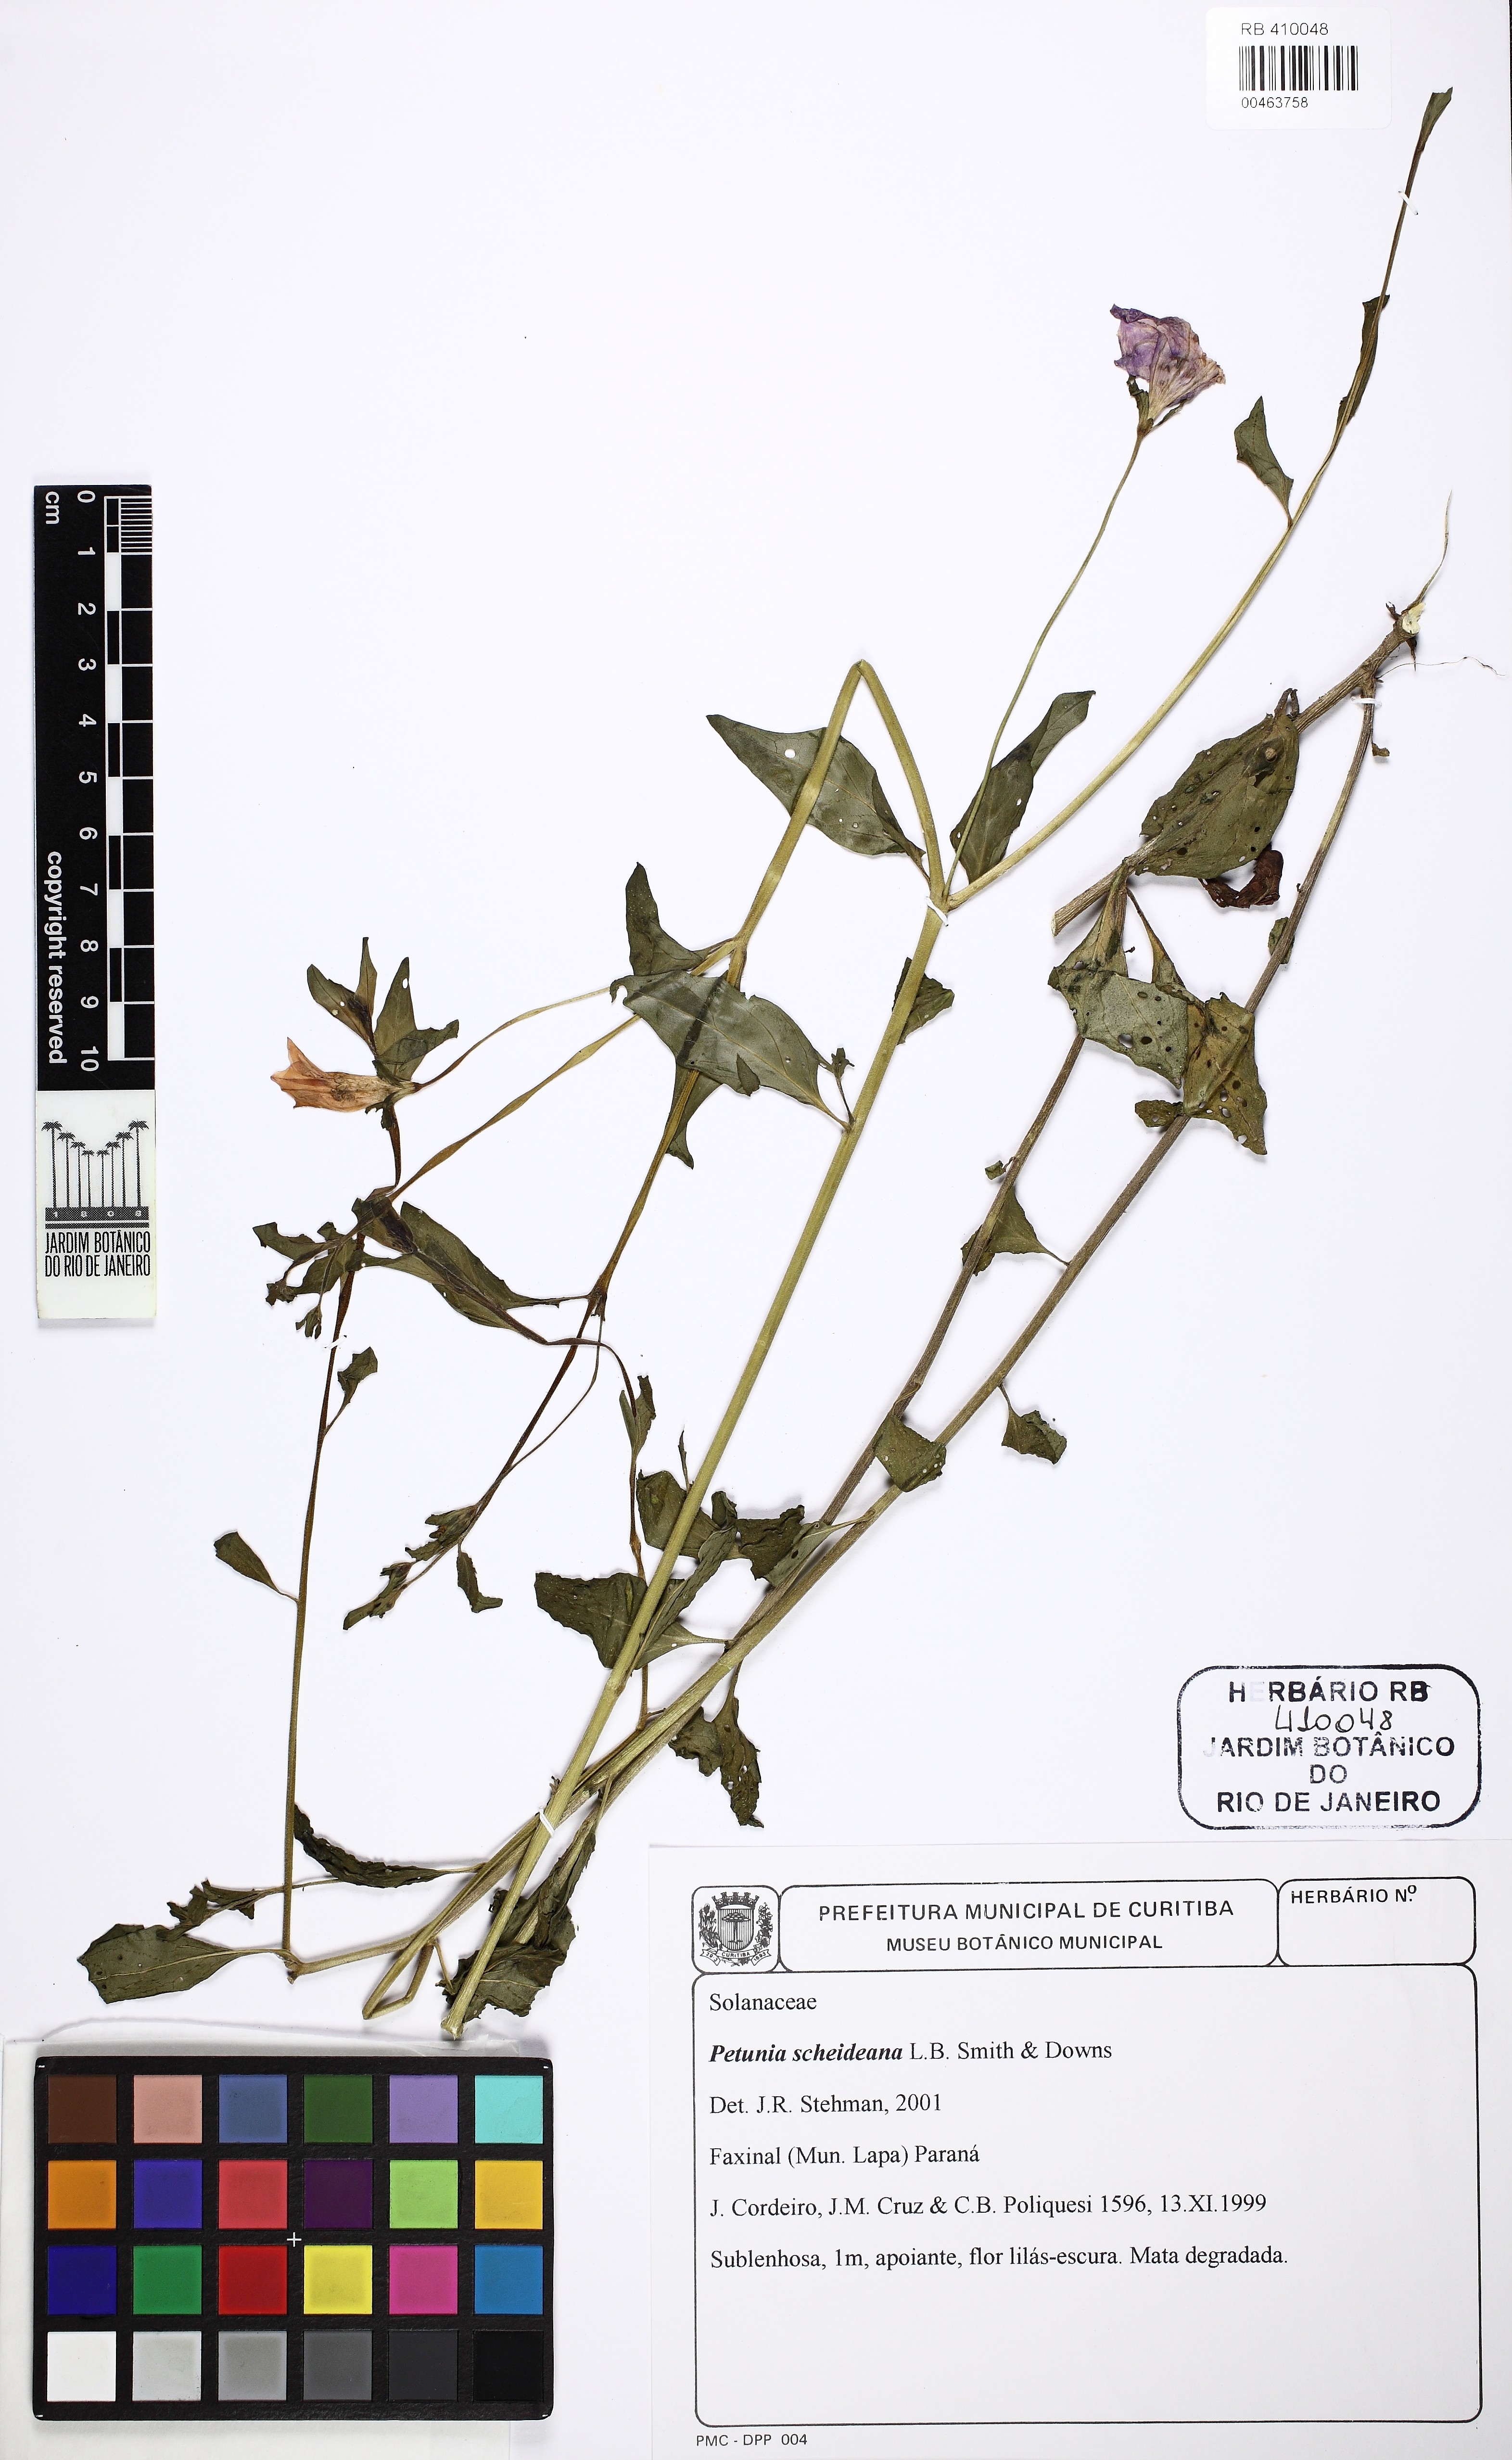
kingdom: Plantae
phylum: Tracheophyta
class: Magnoliopsida
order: Solanales
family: Solanaceae
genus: Petunia
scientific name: Petunia scheideana
